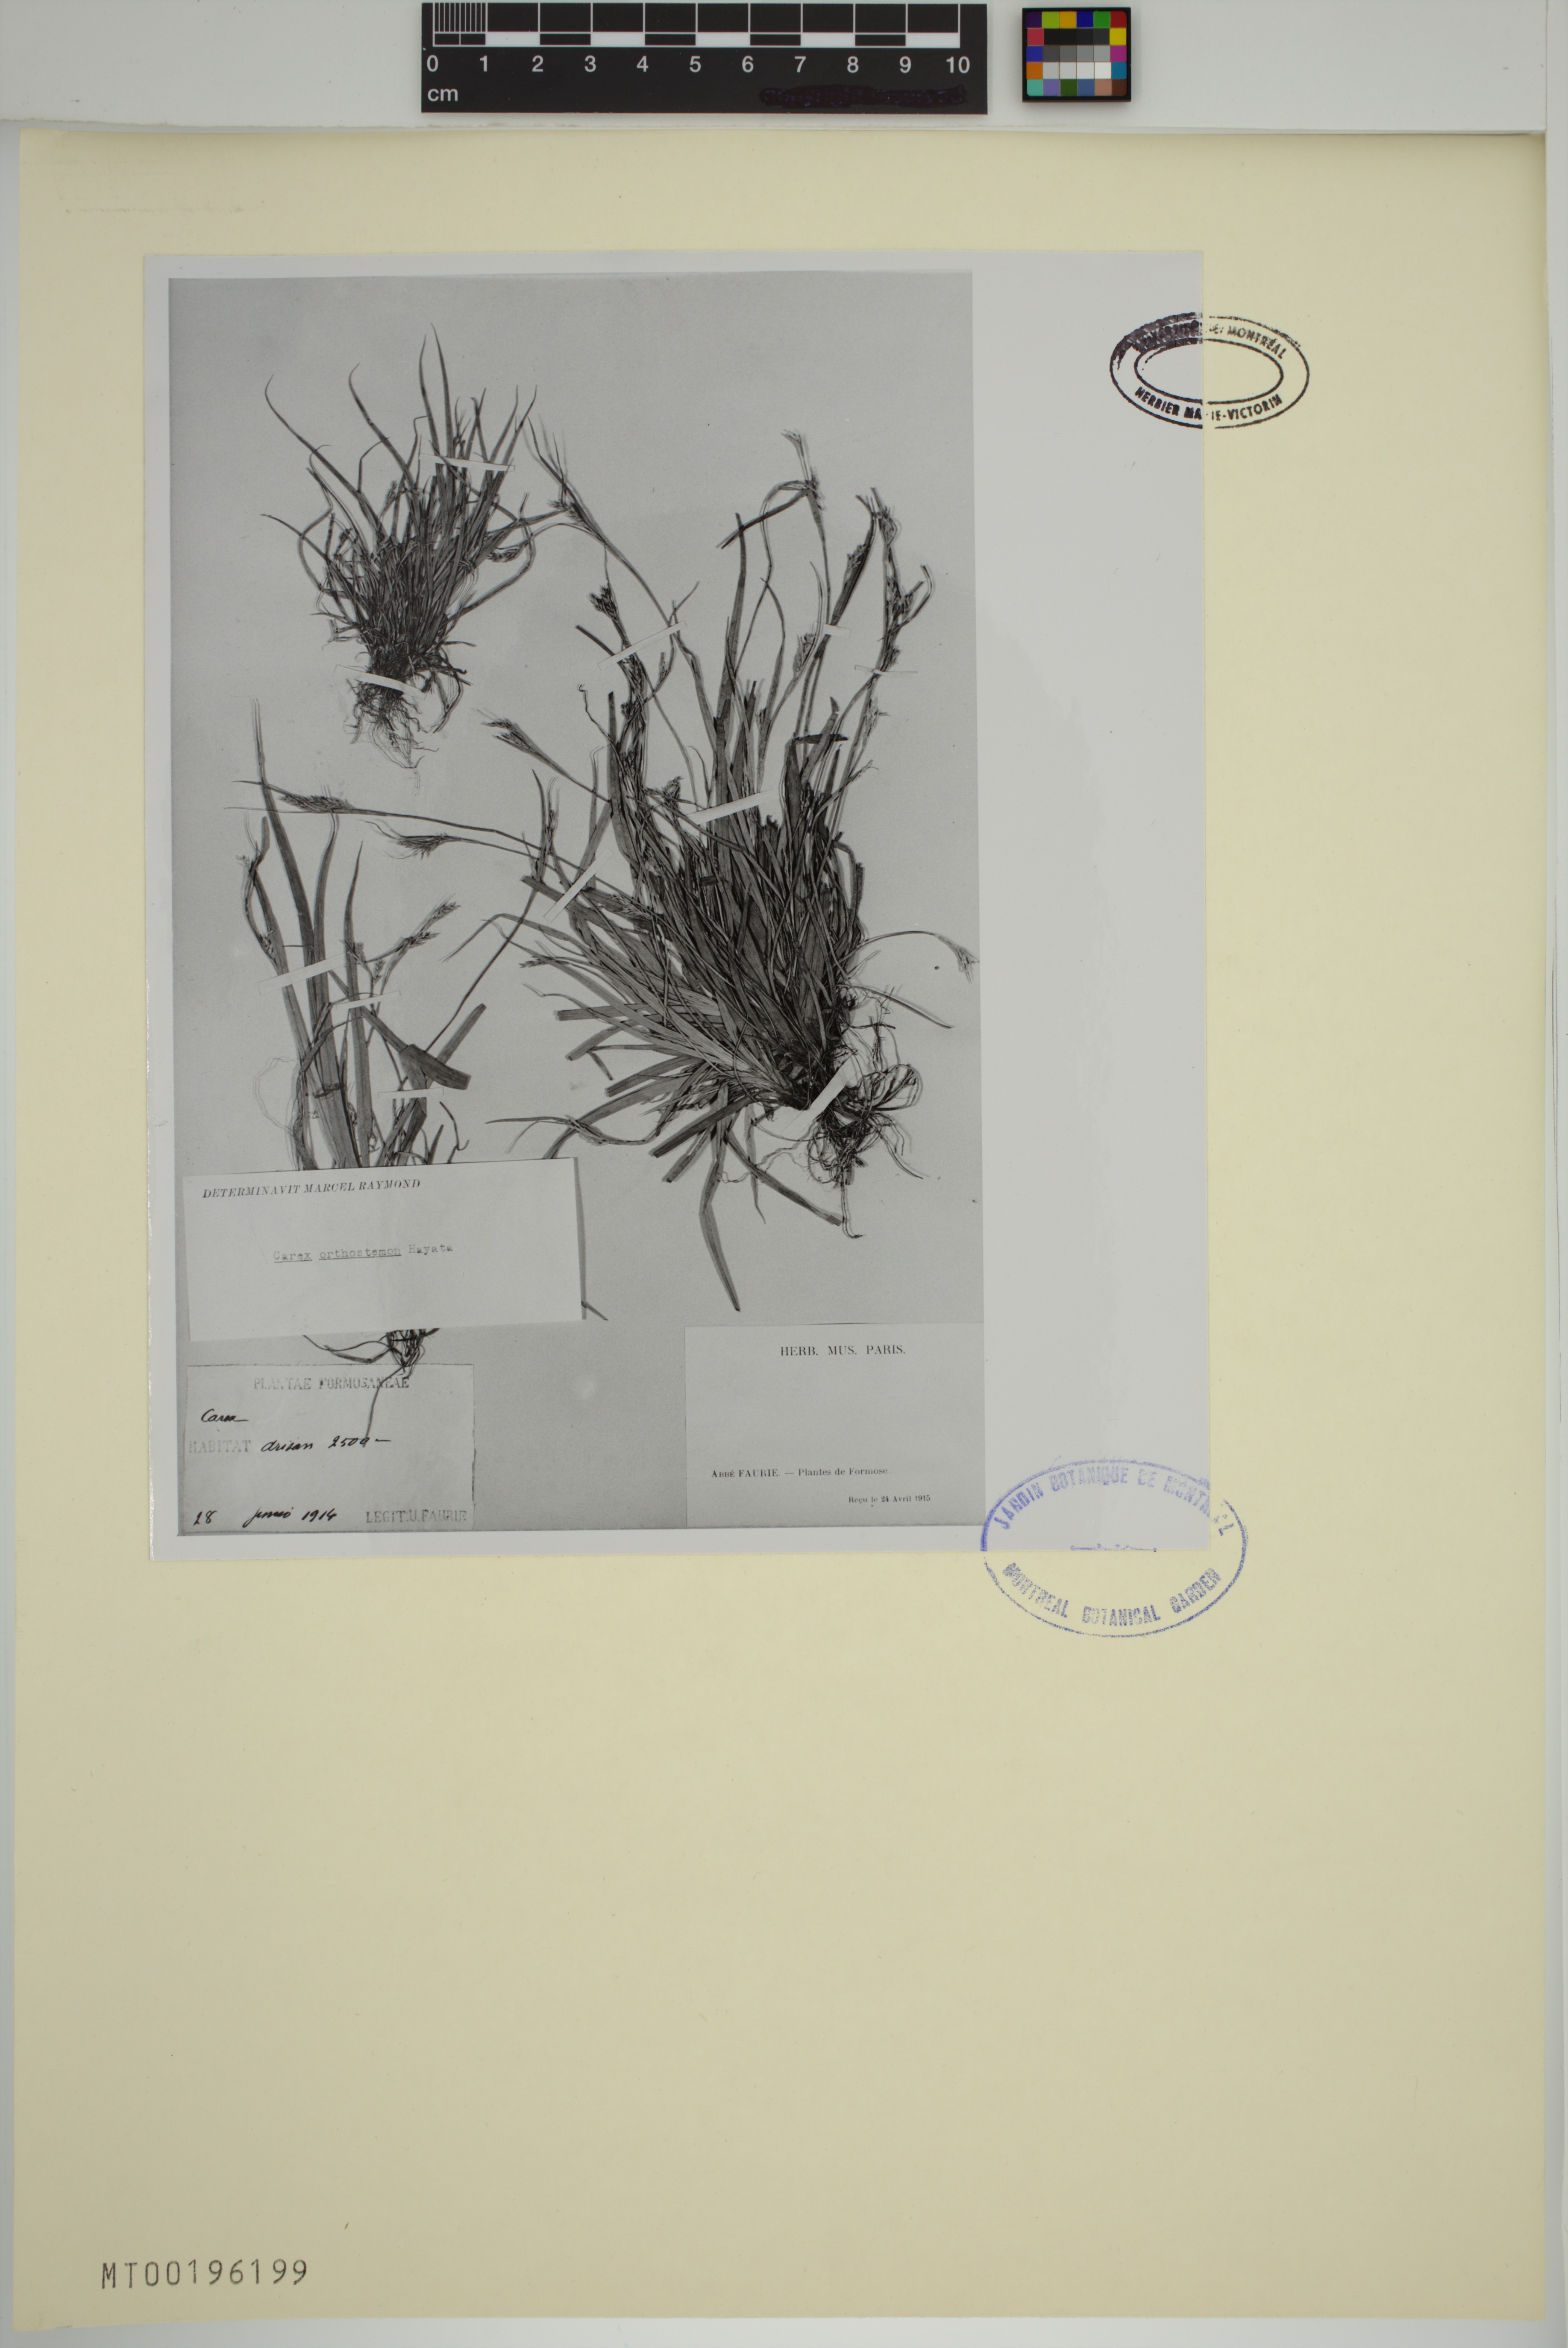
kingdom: Plantae
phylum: Tracheophyta
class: Liliopsida
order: Poales
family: Cyperaceae
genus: Carex
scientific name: Carex orthostemon
